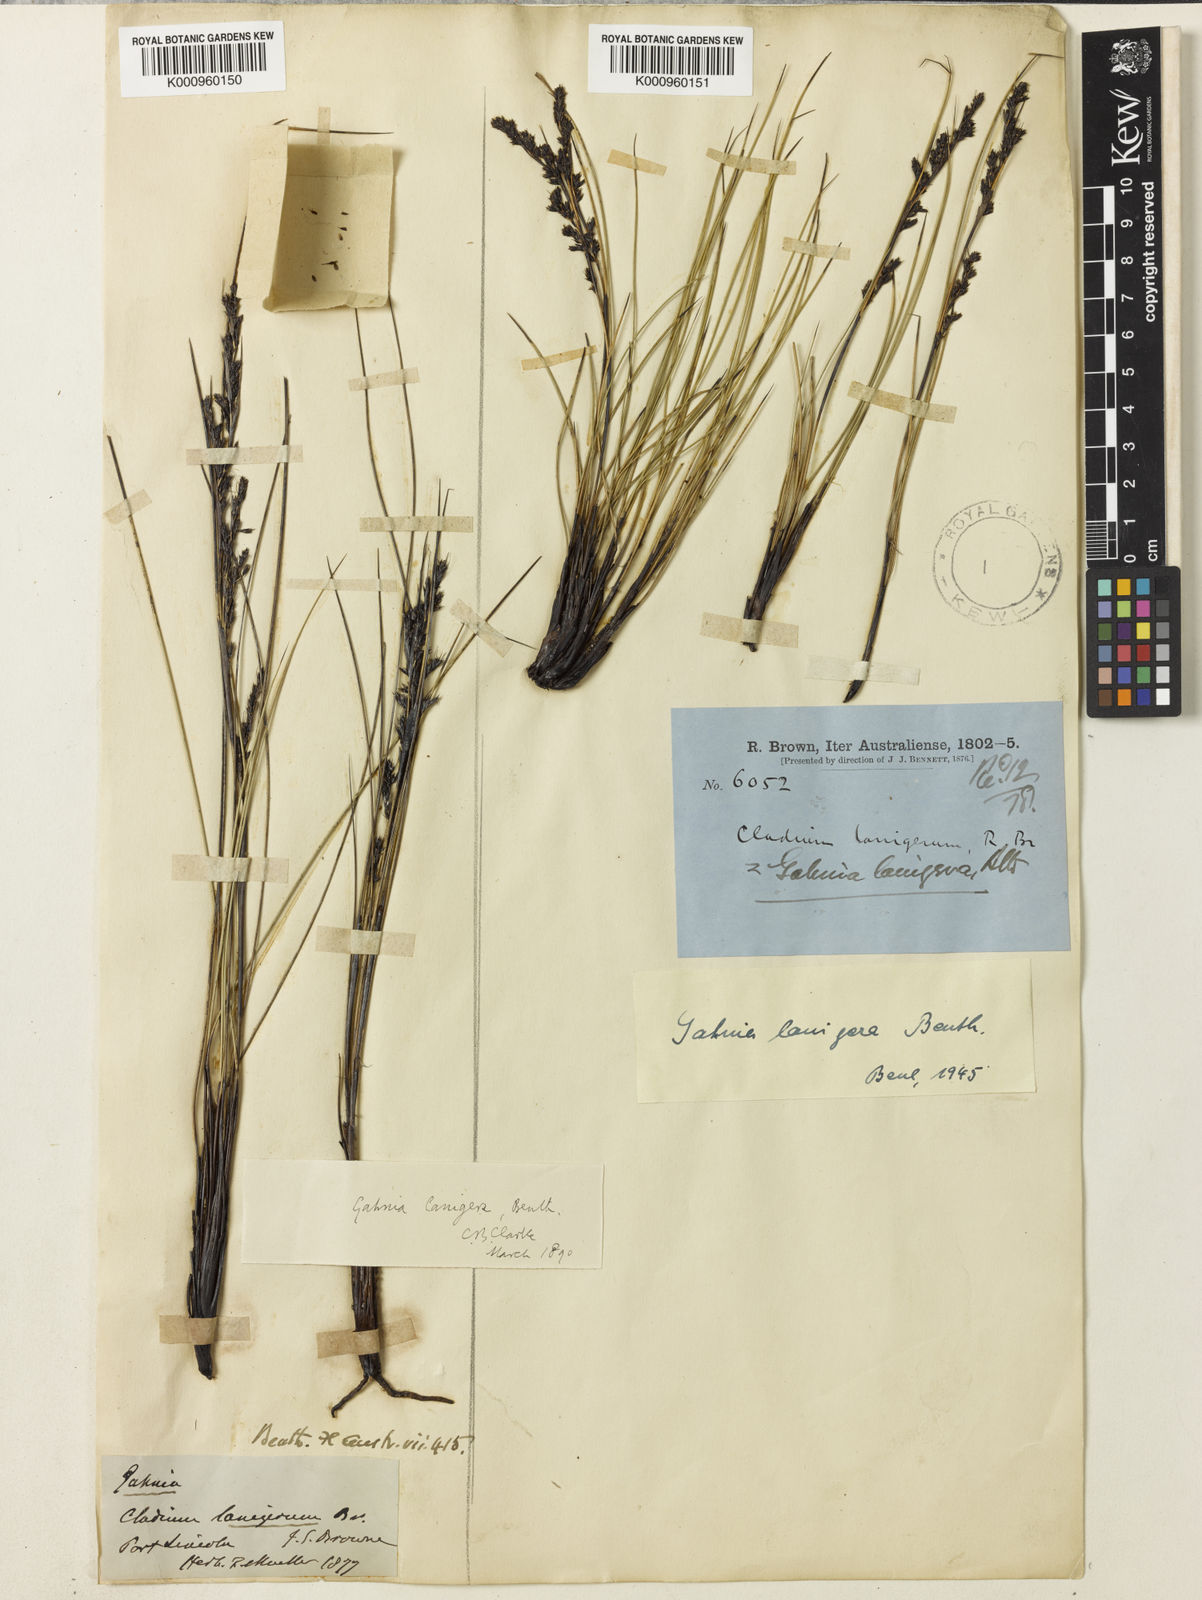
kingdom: Plantae
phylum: Tracheophyta
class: Liliopsida
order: Poales
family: Cyperaceae
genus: Gahnia
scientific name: Gahnia lanigera
